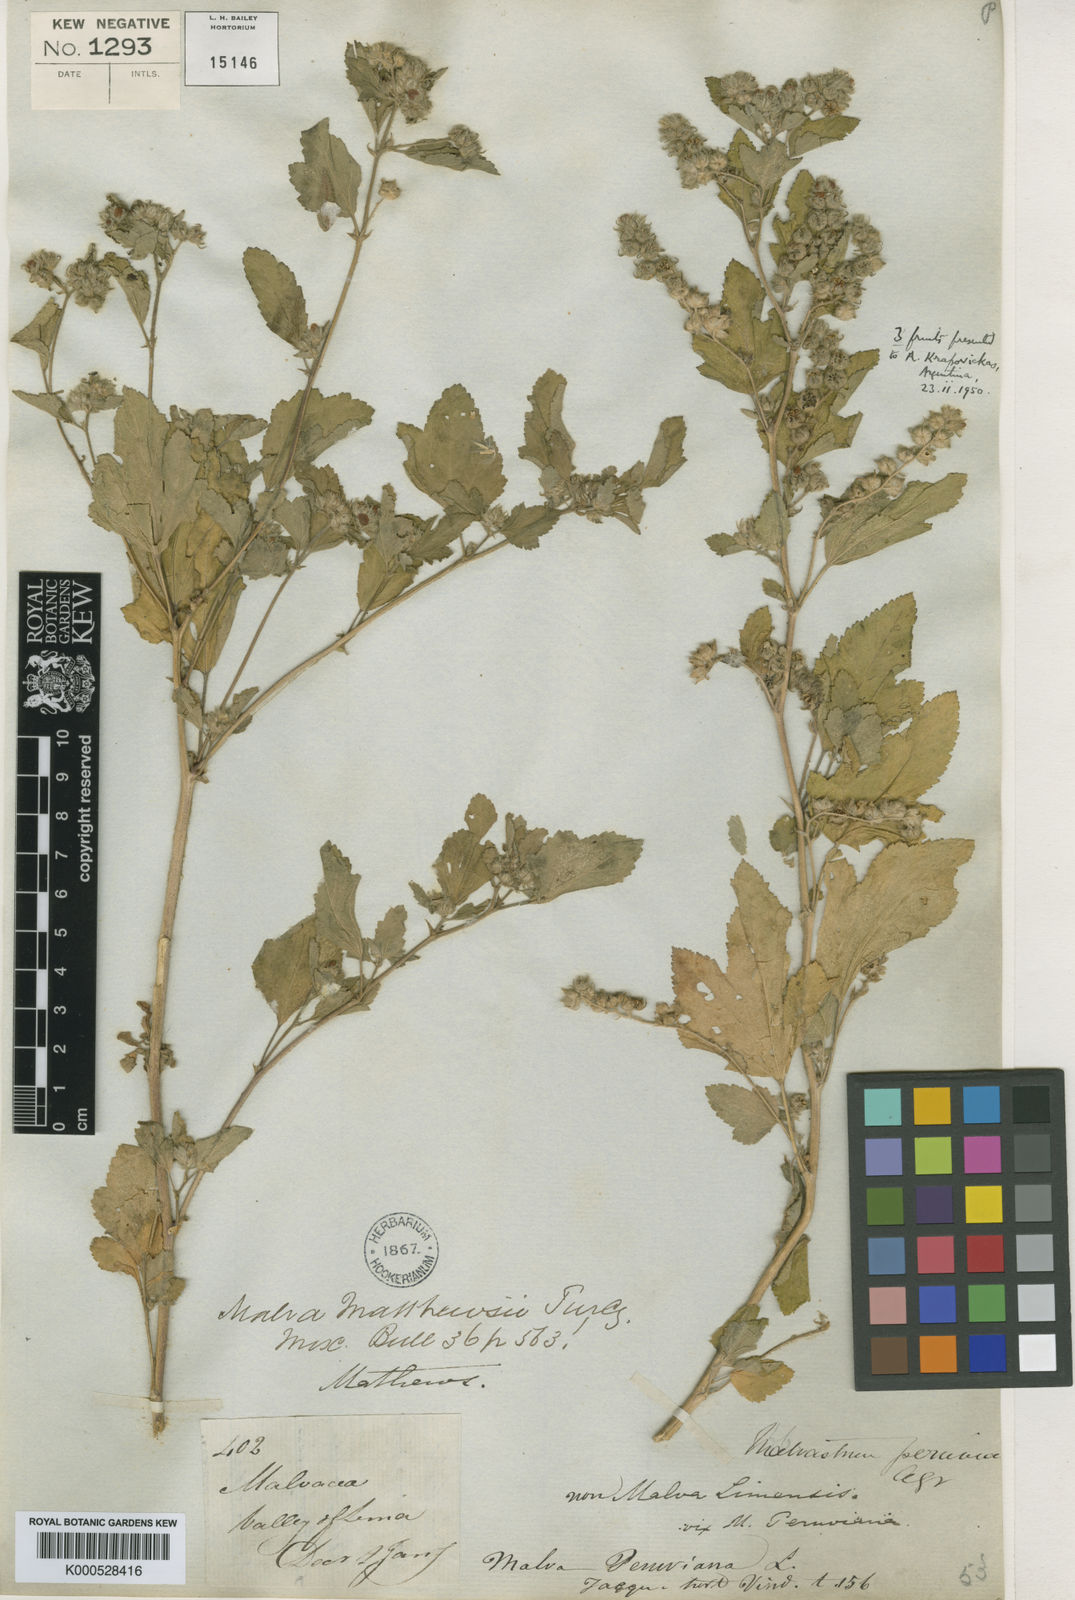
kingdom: Plantae
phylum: Tracheophyta
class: Magnoliopsida
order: Malvales
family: Malvaceae
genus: Fuertesimalva
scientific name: Fuertesimalva mathewsii
